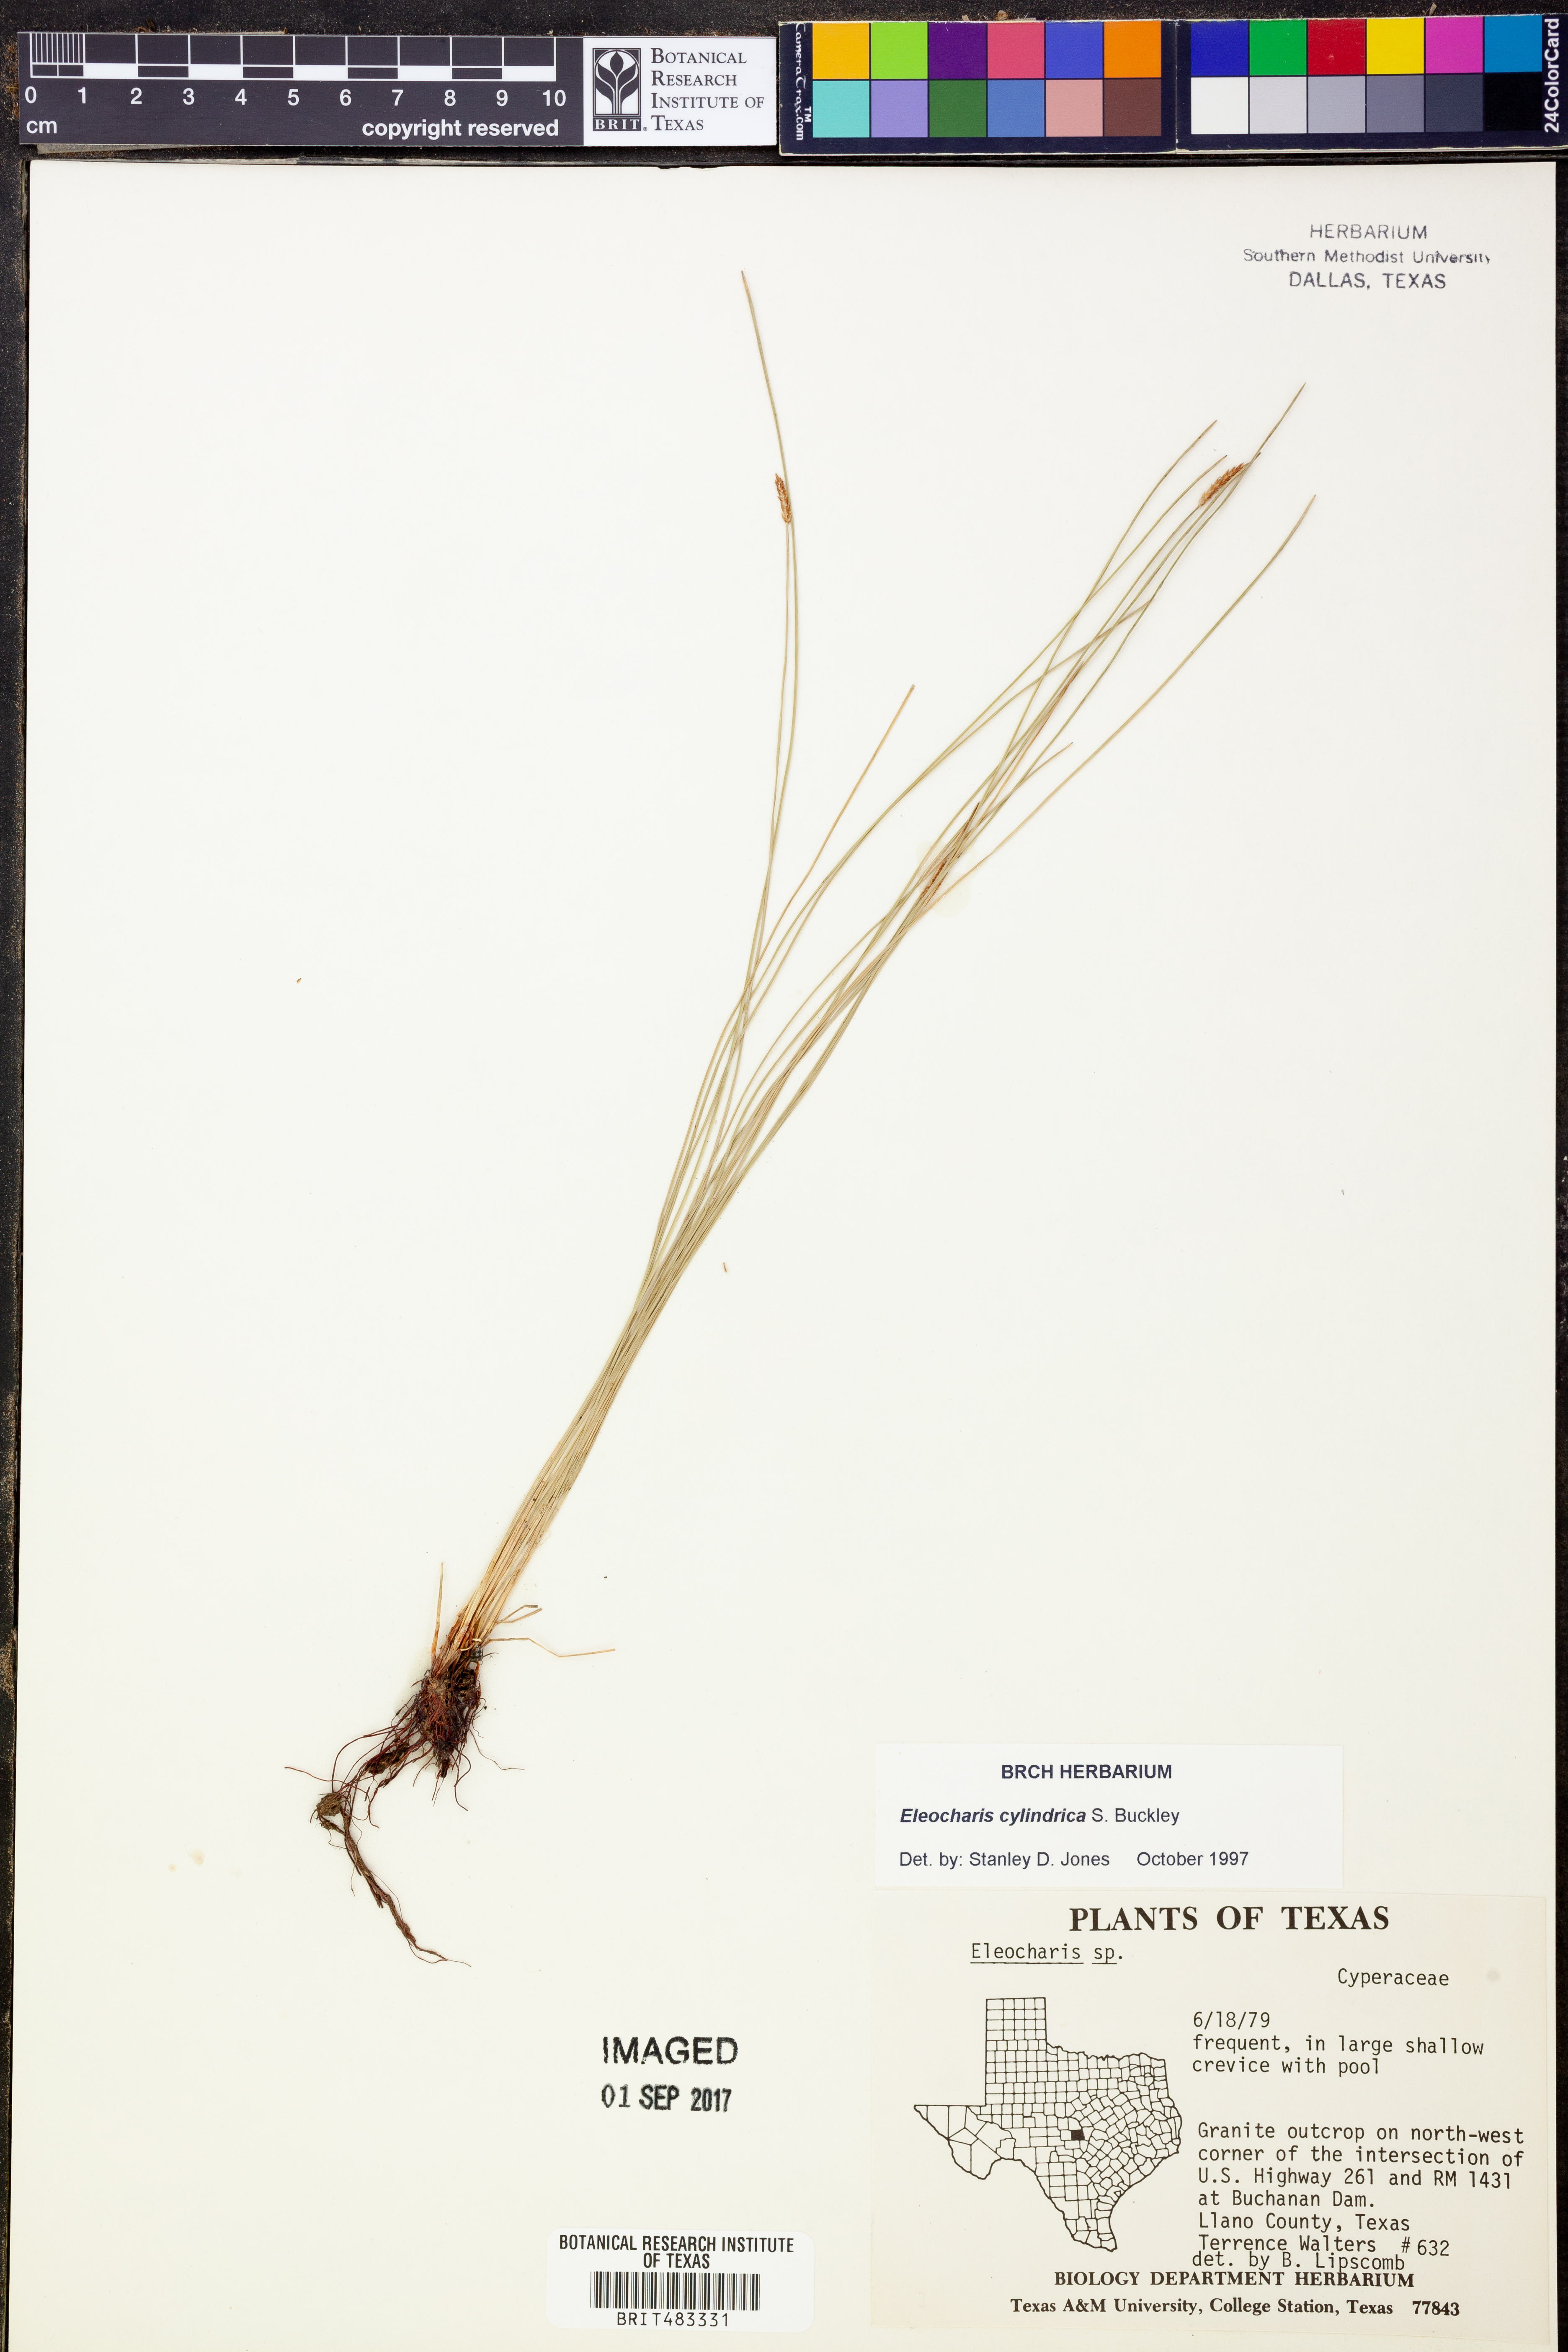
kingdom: Plantae
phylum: Tracheophyta
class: Liliopsida
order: Poales
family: Cyperaceae
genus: Eleocharis
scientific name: Eleocharis cylindrica
